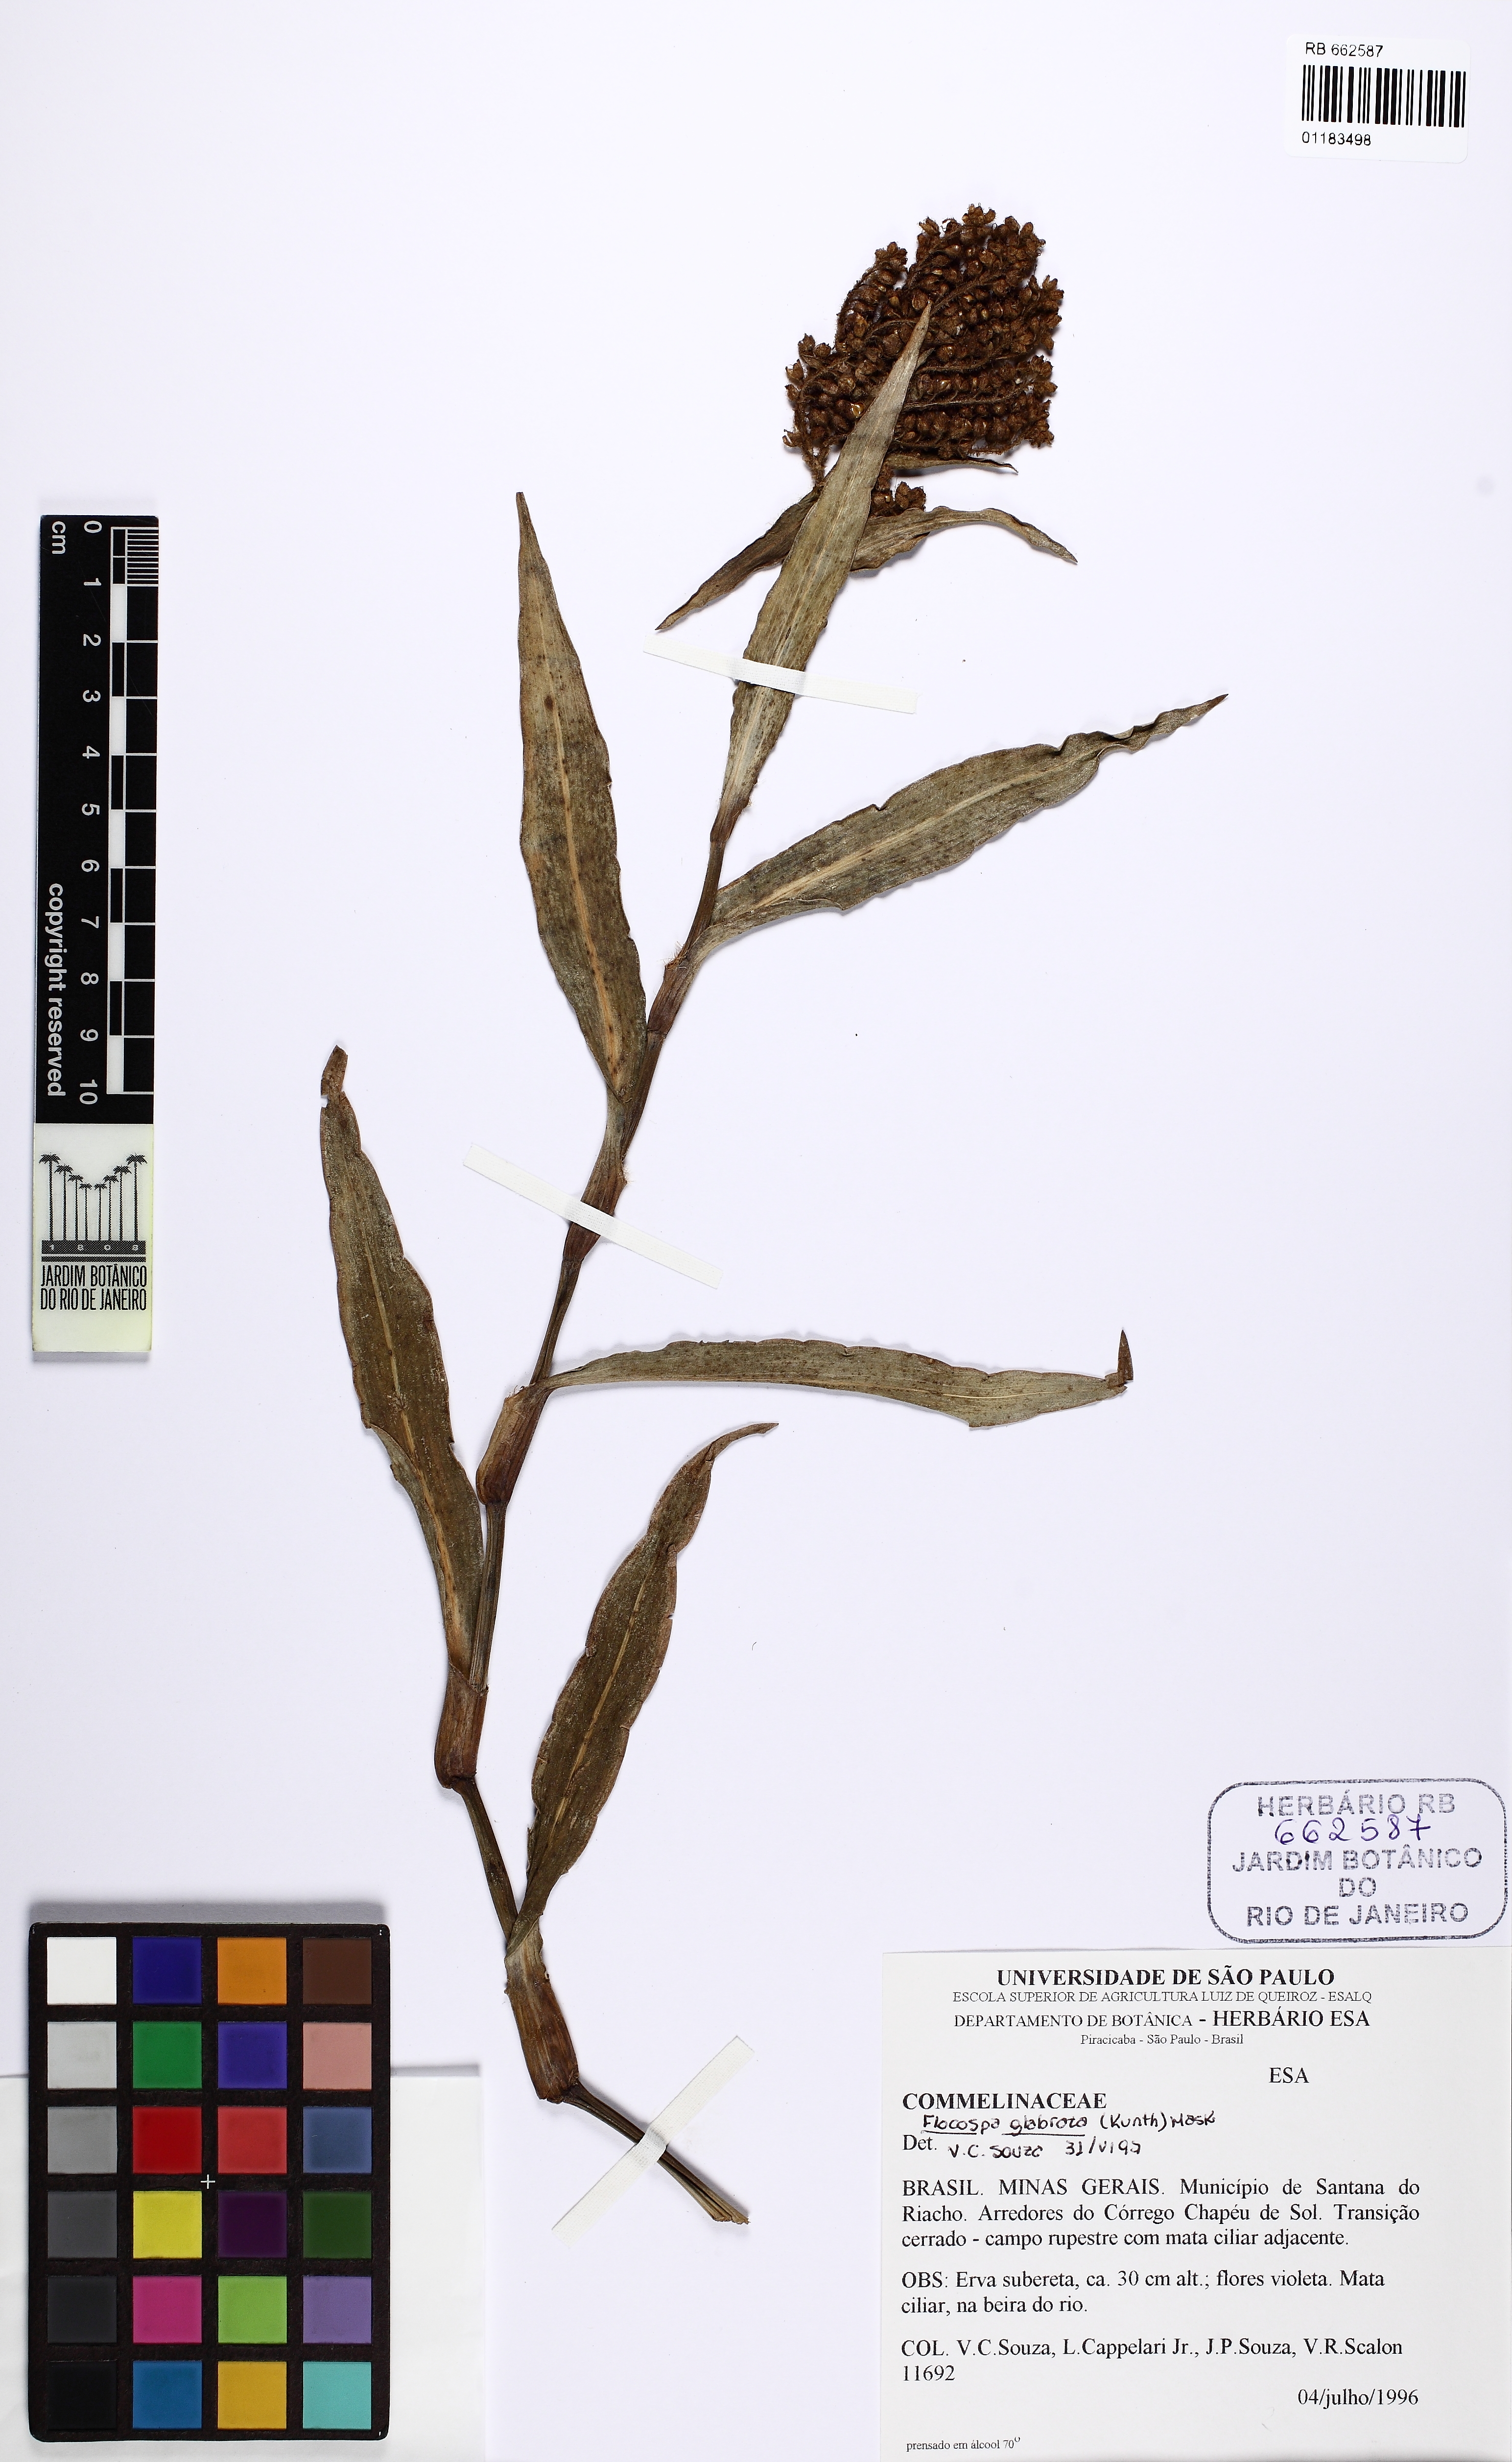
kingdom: Plantae
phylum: Tracheophyta
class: Liliopsida
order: Commelinales
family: Commelinaceae
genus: Floscopa
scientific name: Floscopa glabrata
